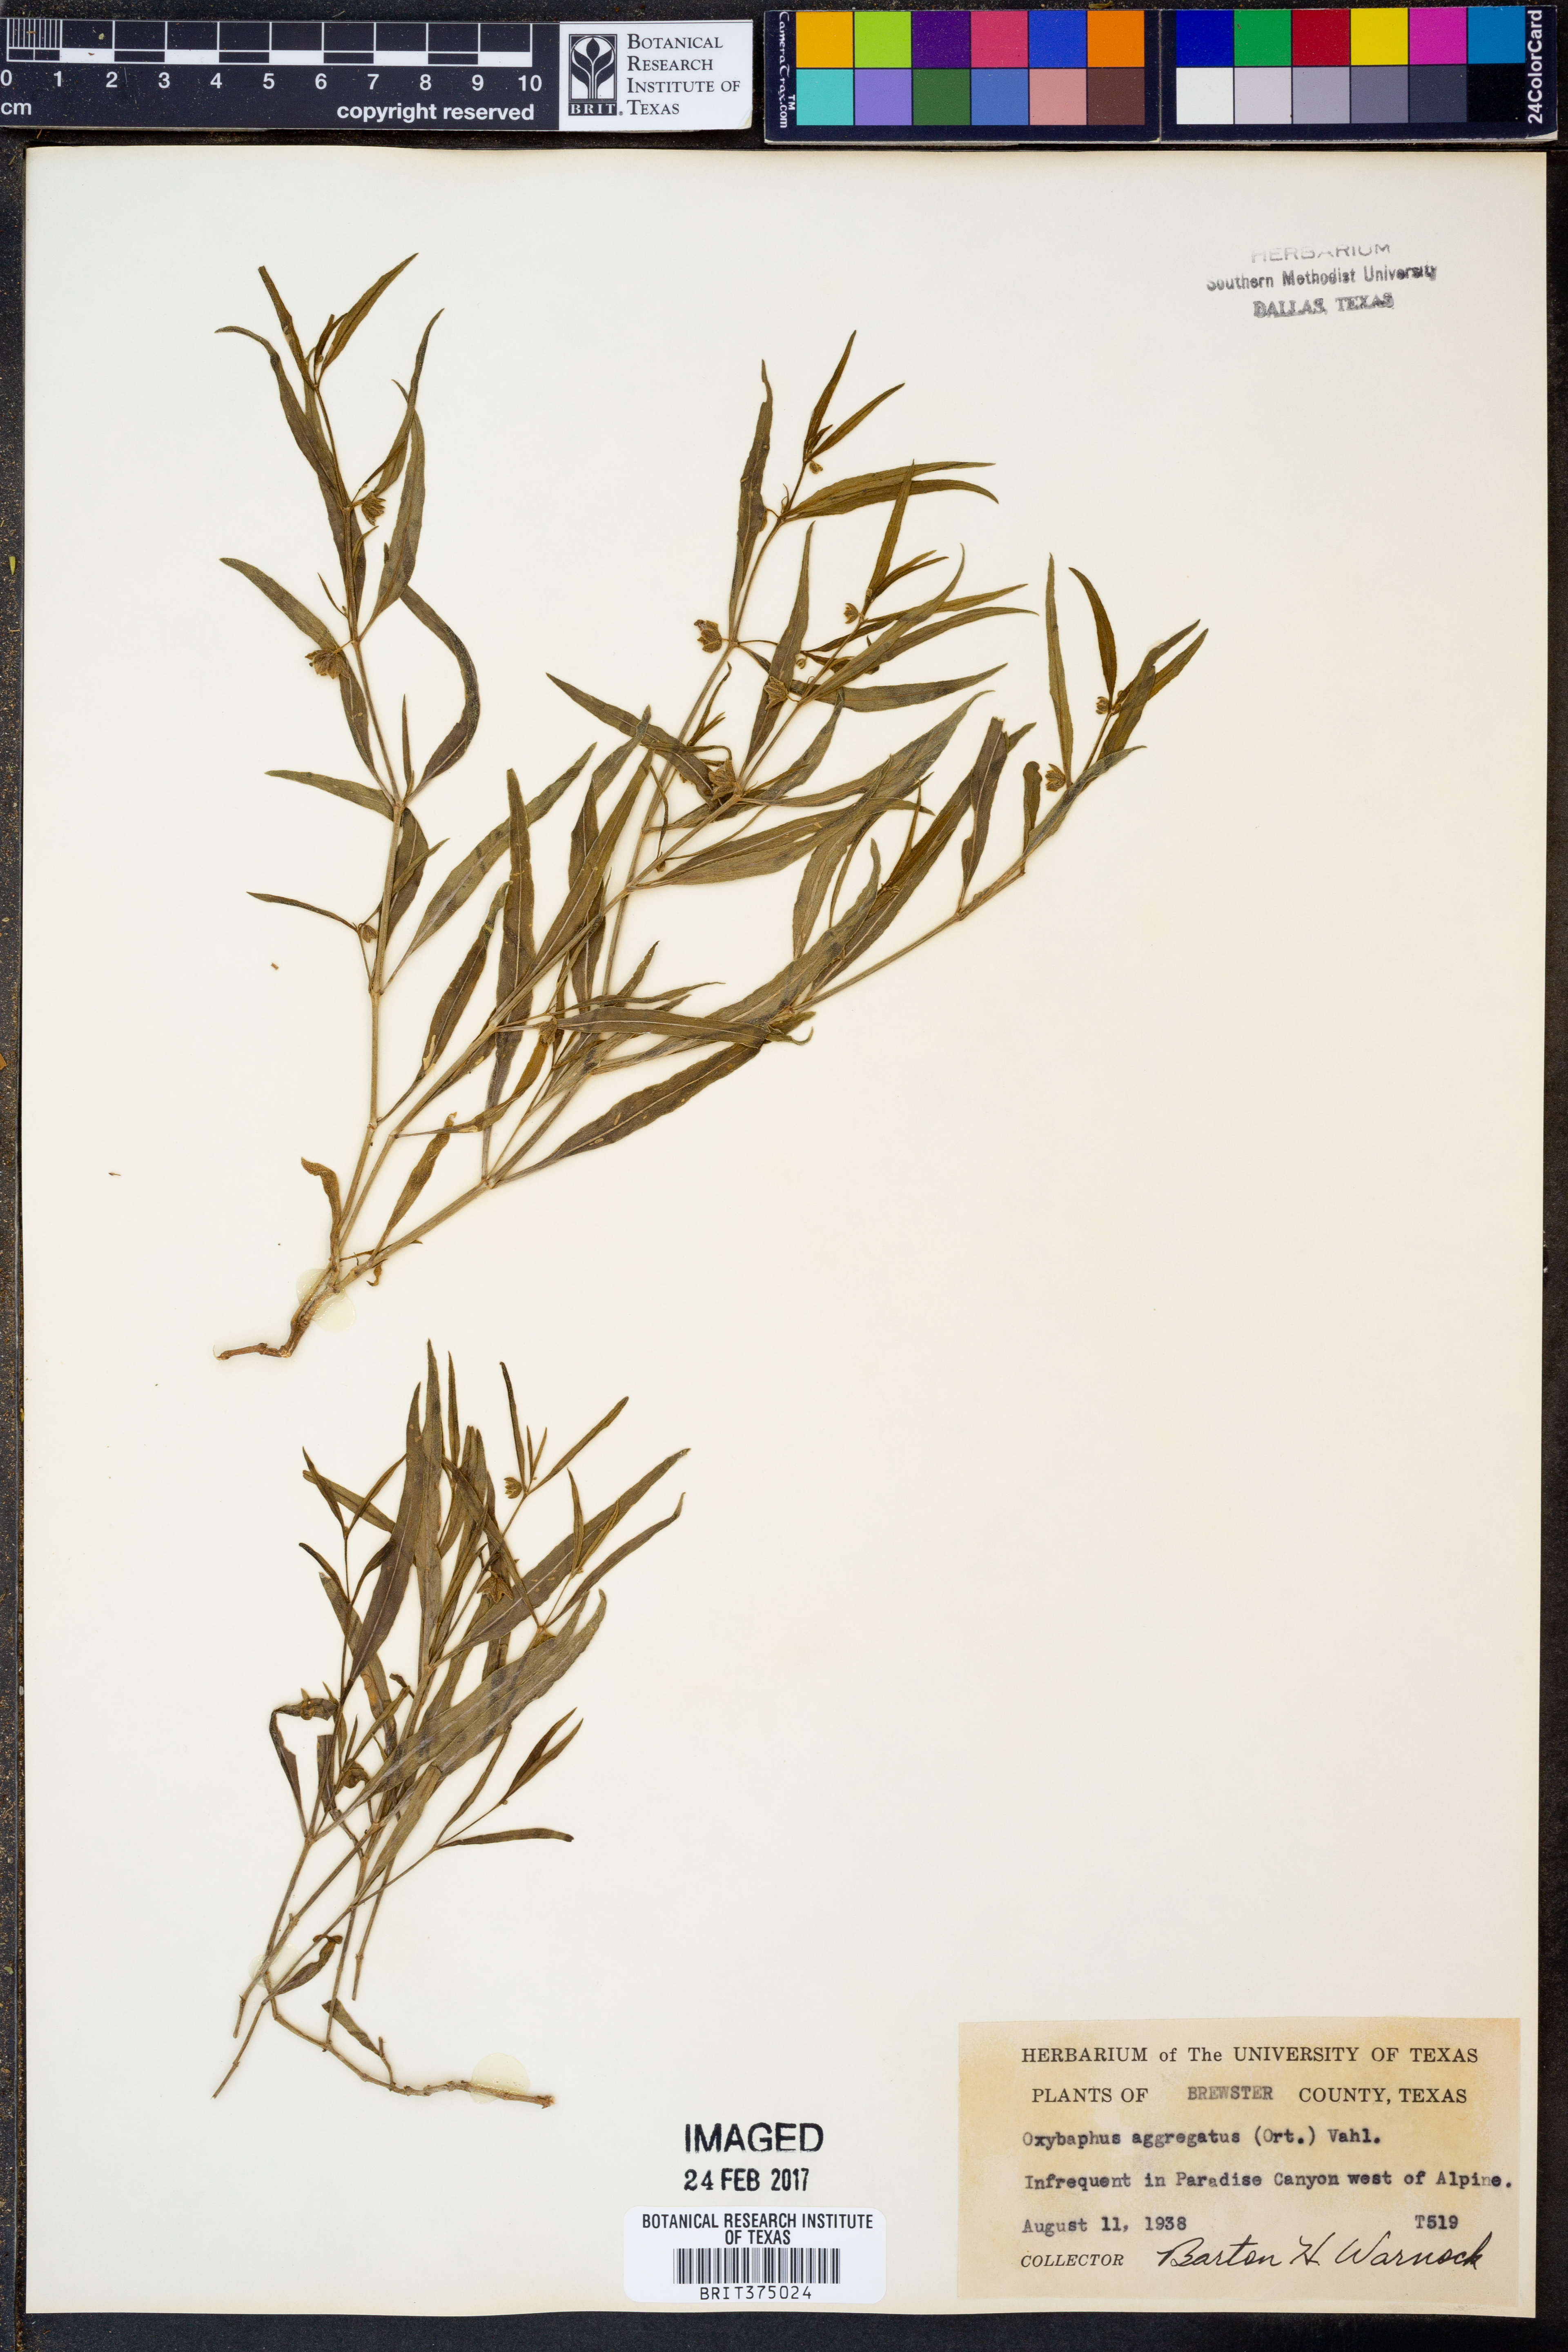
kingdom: Plantae
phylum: Tracheophyta
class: Magnoliopsida
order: Caryophyllales
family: Nyctaginaceae
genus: Mirabilis
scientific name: Mirabilis aggregata
